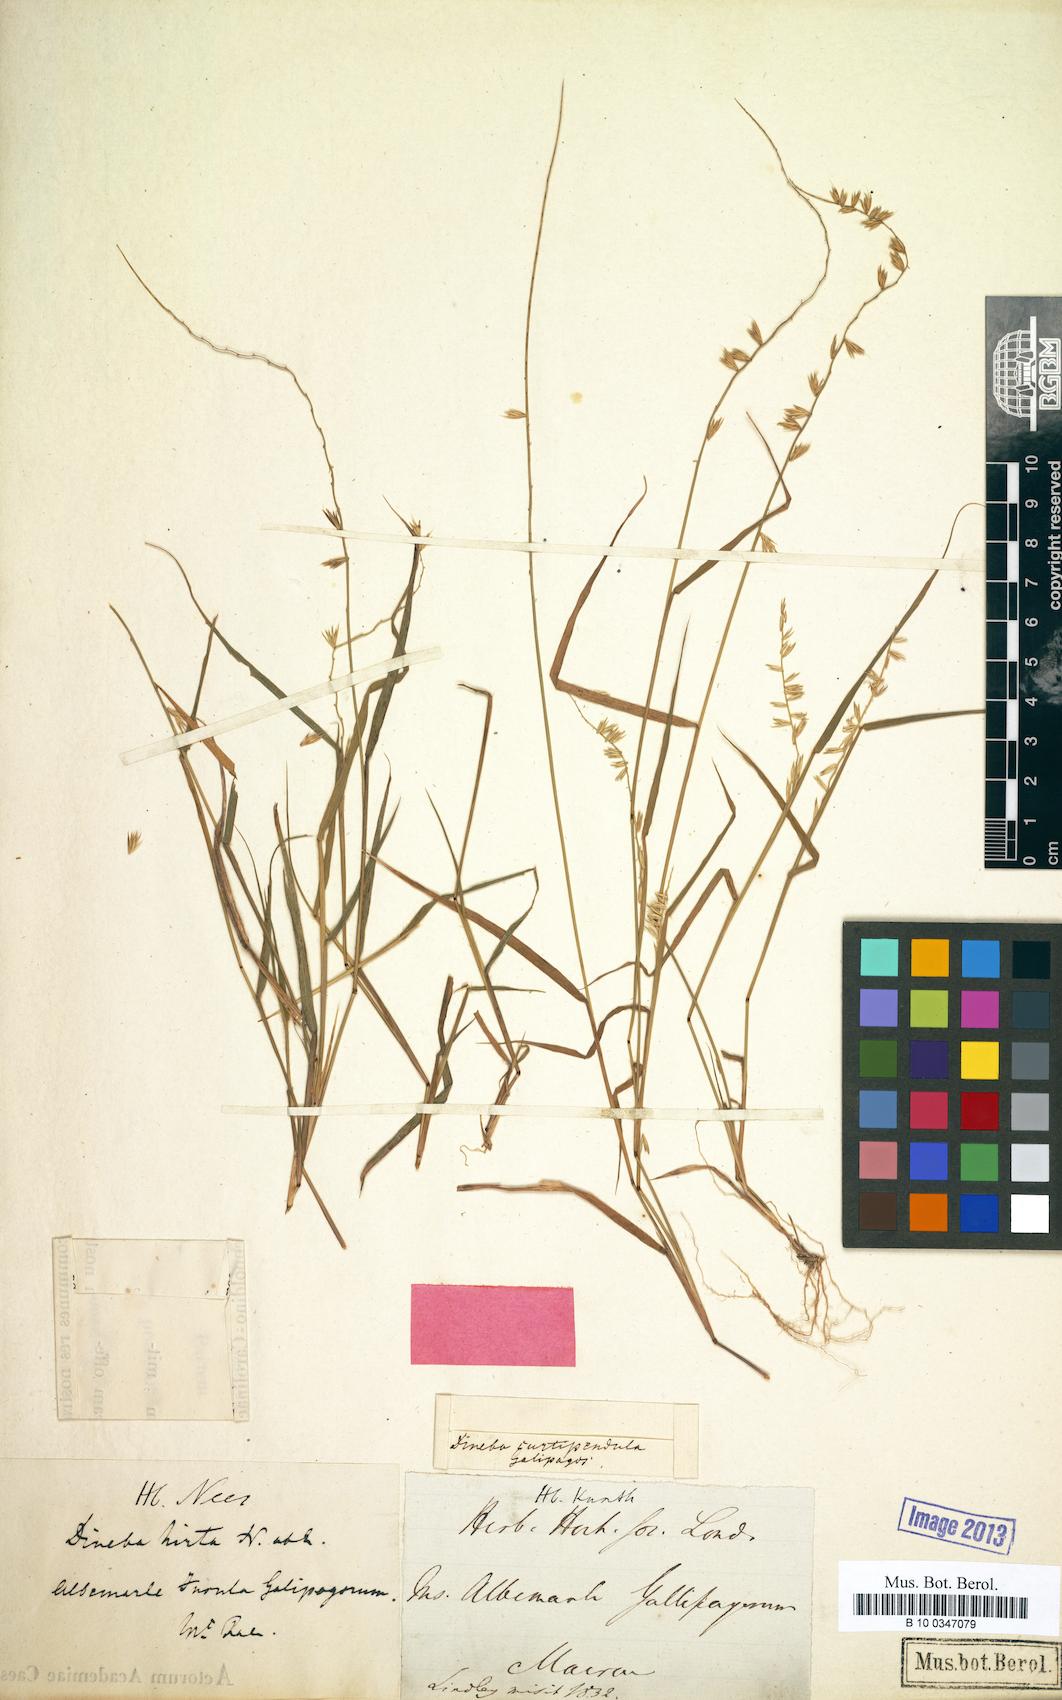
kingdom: Plantae
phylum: Tracheophyta
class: Liliopsida
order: Poales
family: Poaceae
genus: Bouteloua
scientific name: Bouteloua disticha
